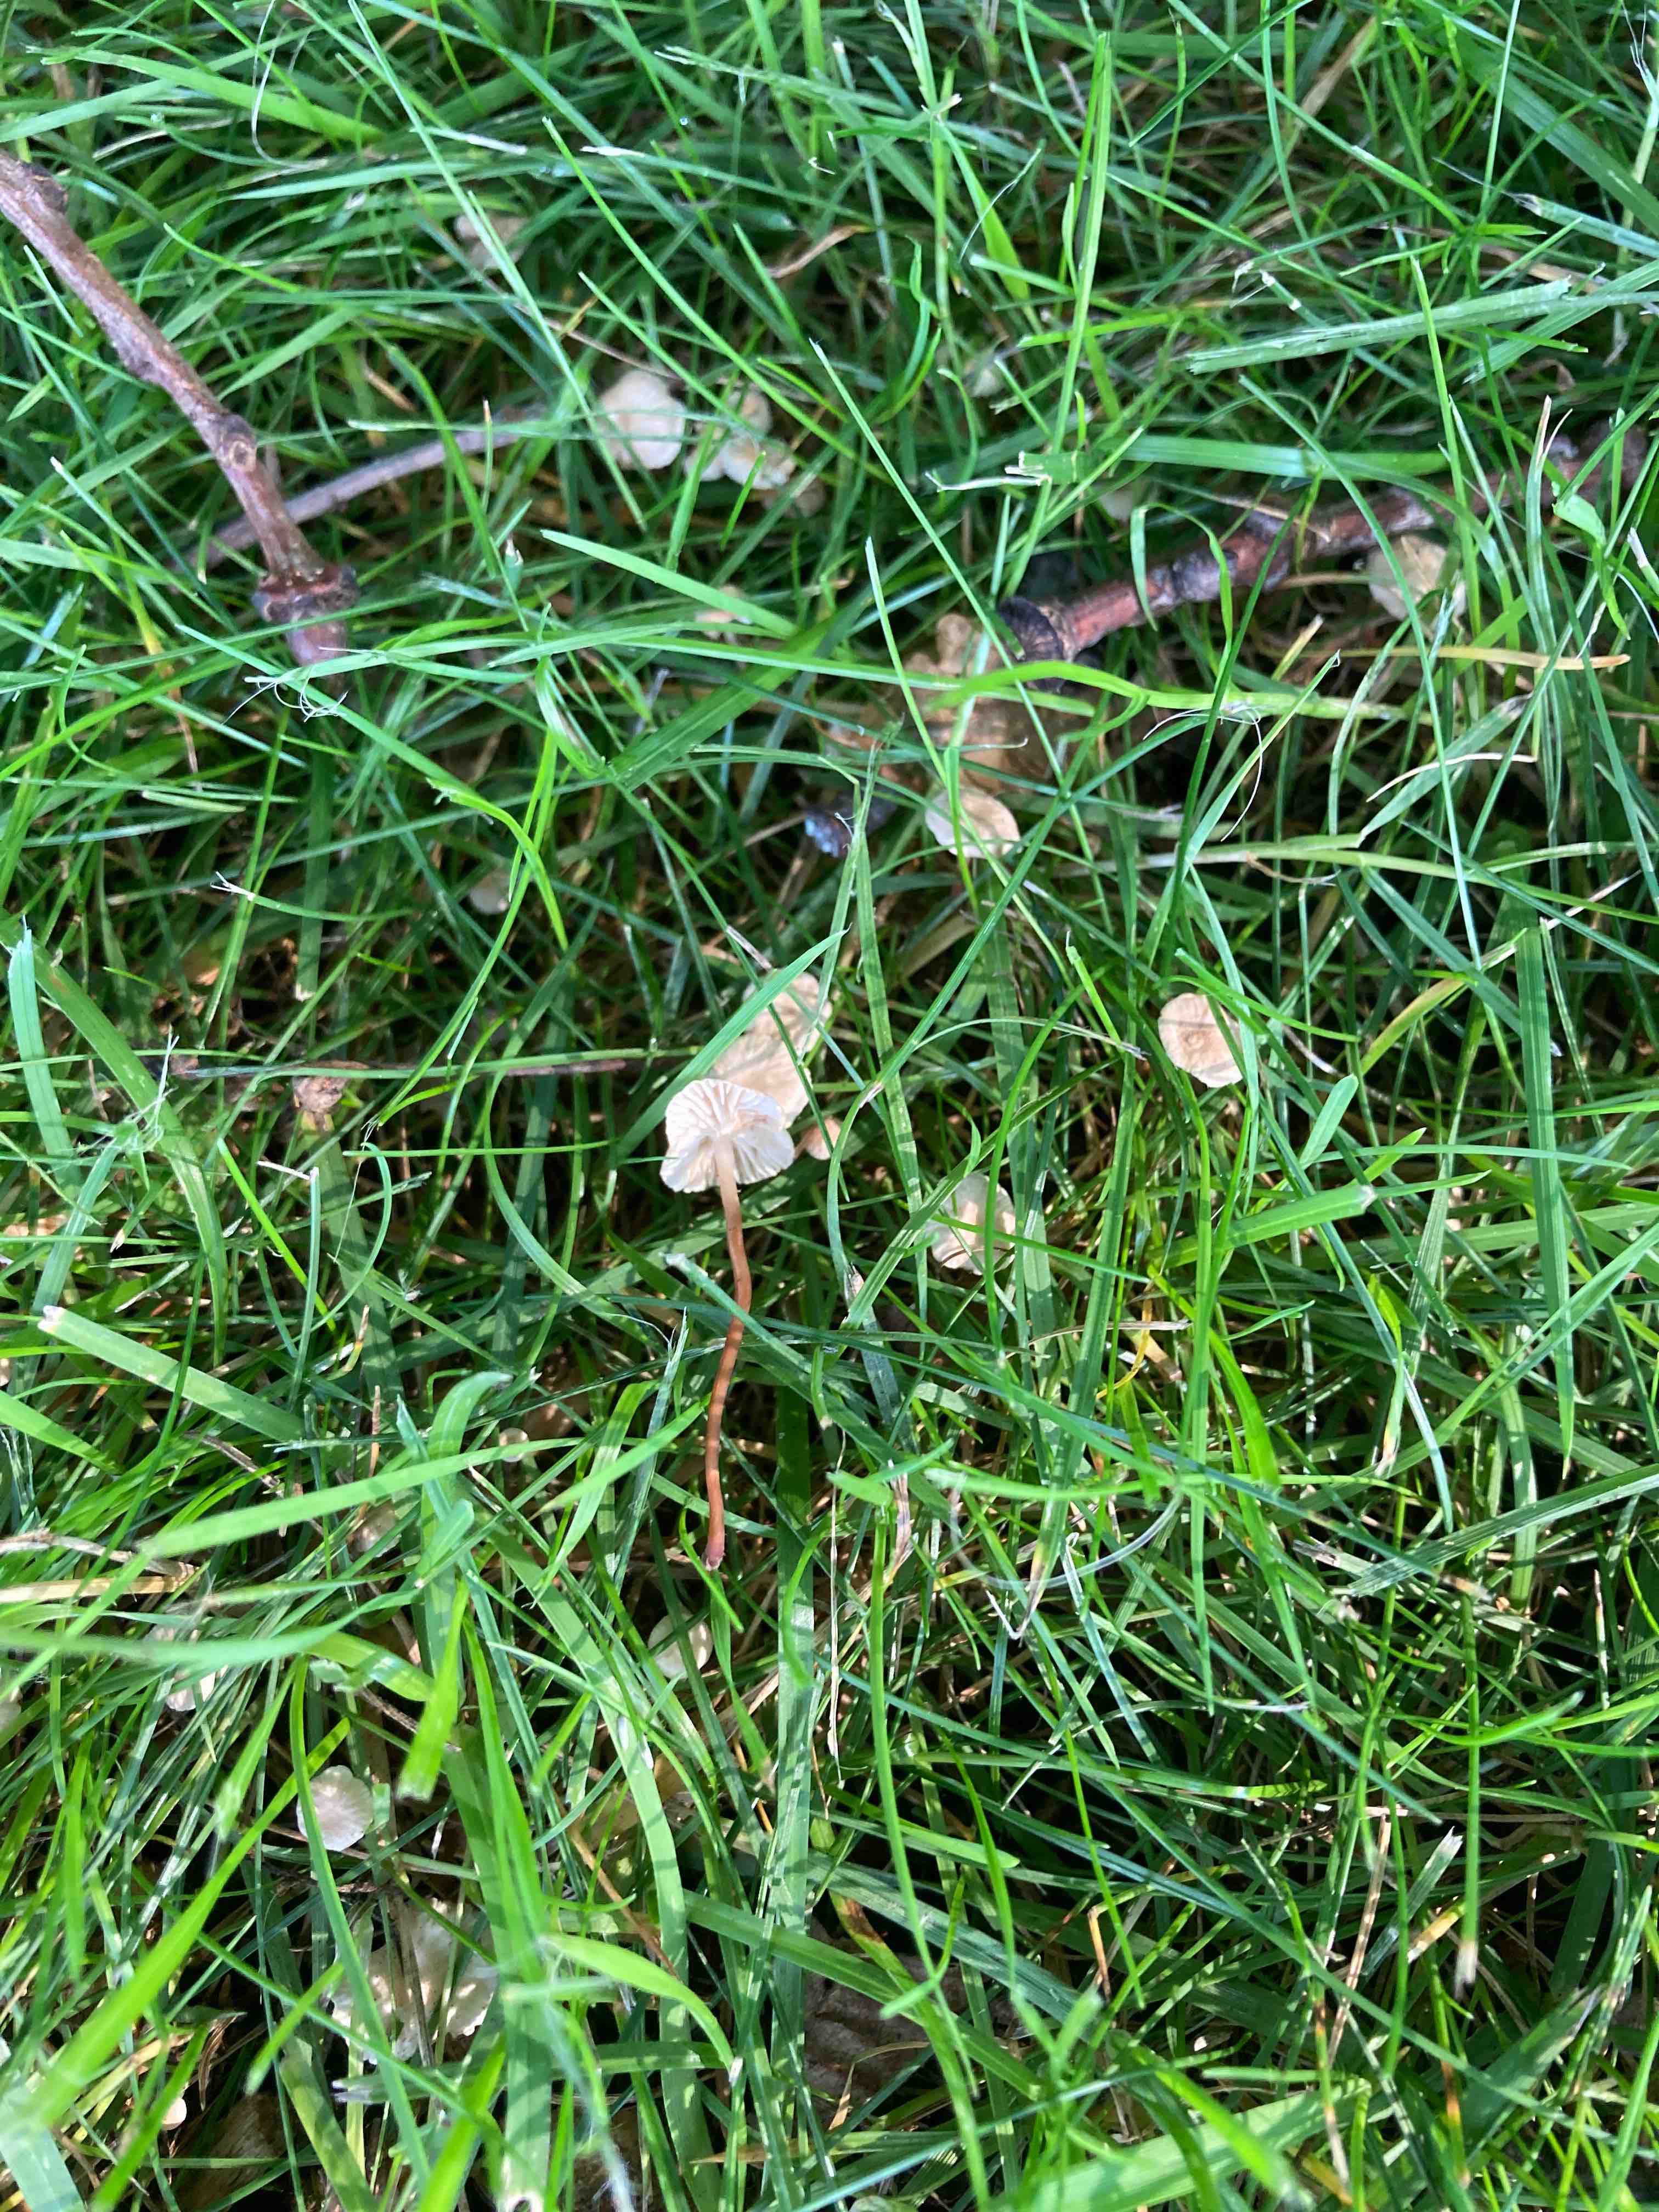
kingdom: Fungi
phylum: Basidiomycota
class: Agaricomycetes
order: Agaricales
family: Omphalotaceae
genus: Collybiopsis
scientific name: Collybiopsis vaillantii
